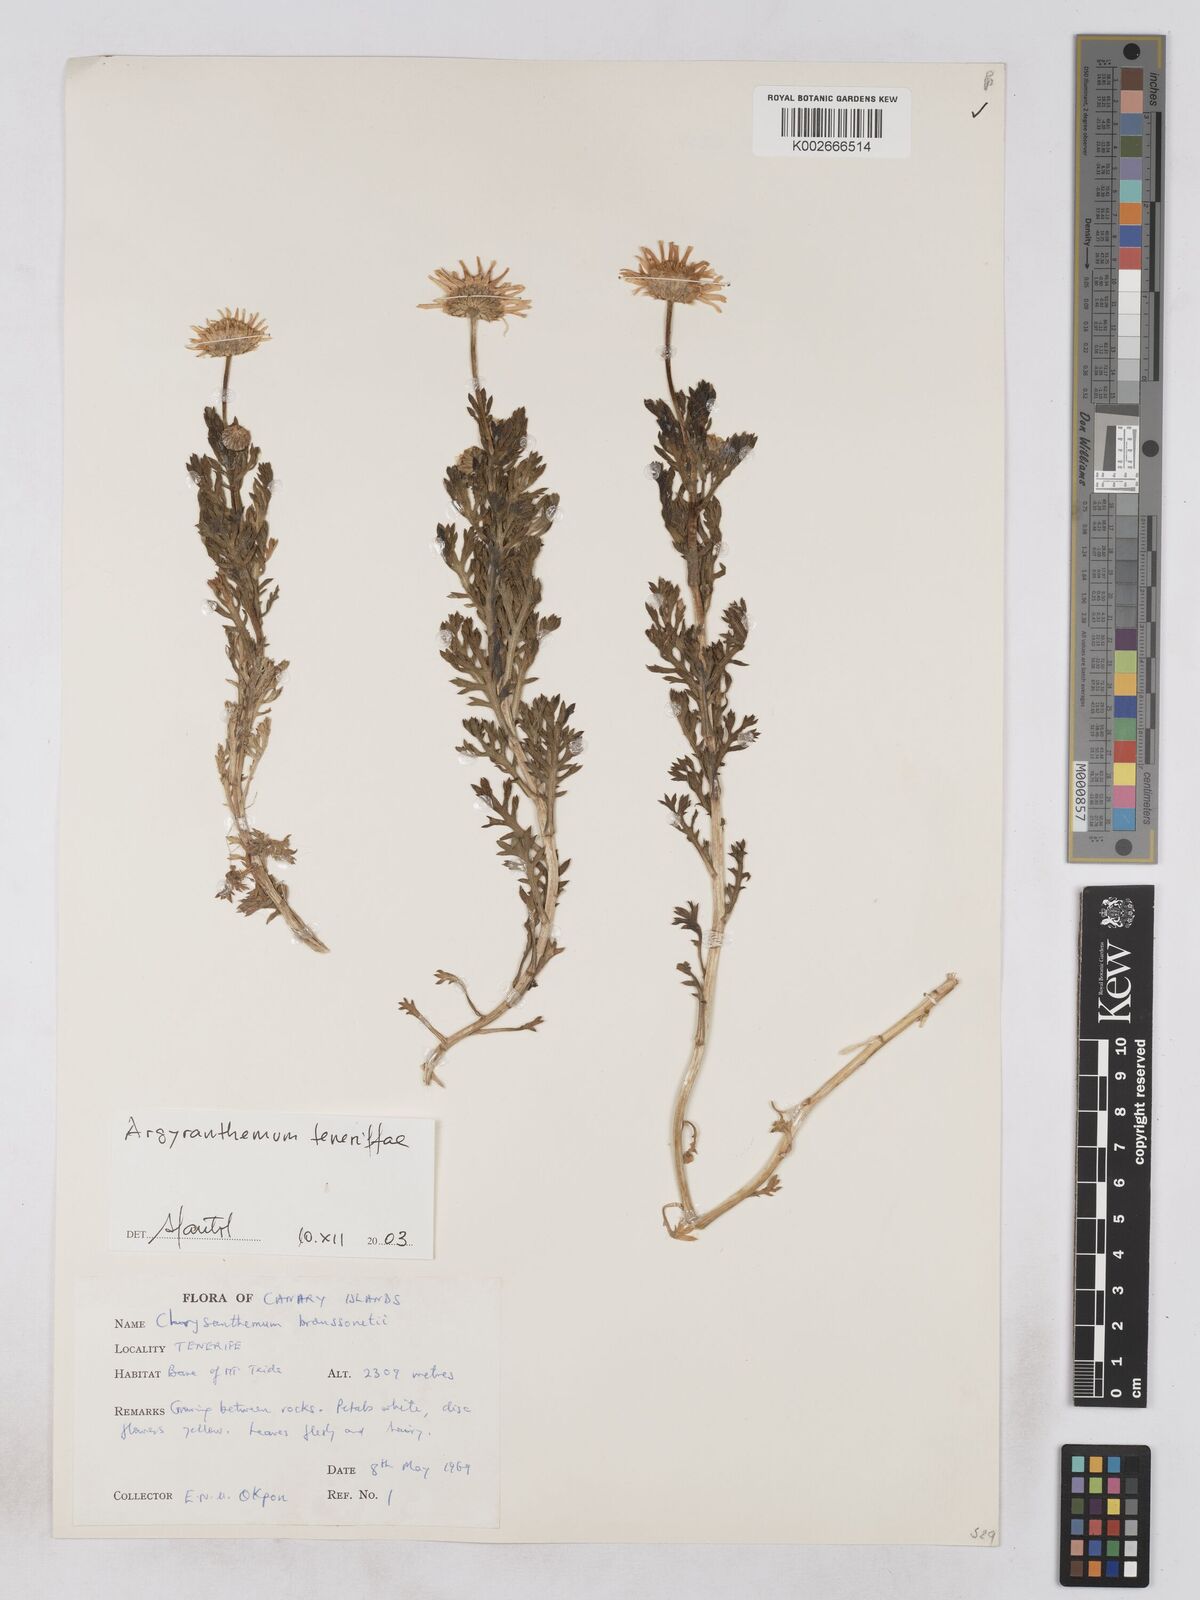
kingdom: Plantae
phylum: Tracheophyta
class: Magnoliopsida
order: Asterales
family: Asteraceae
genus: Argyranthemum
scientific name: Argyranthemum adauctum
